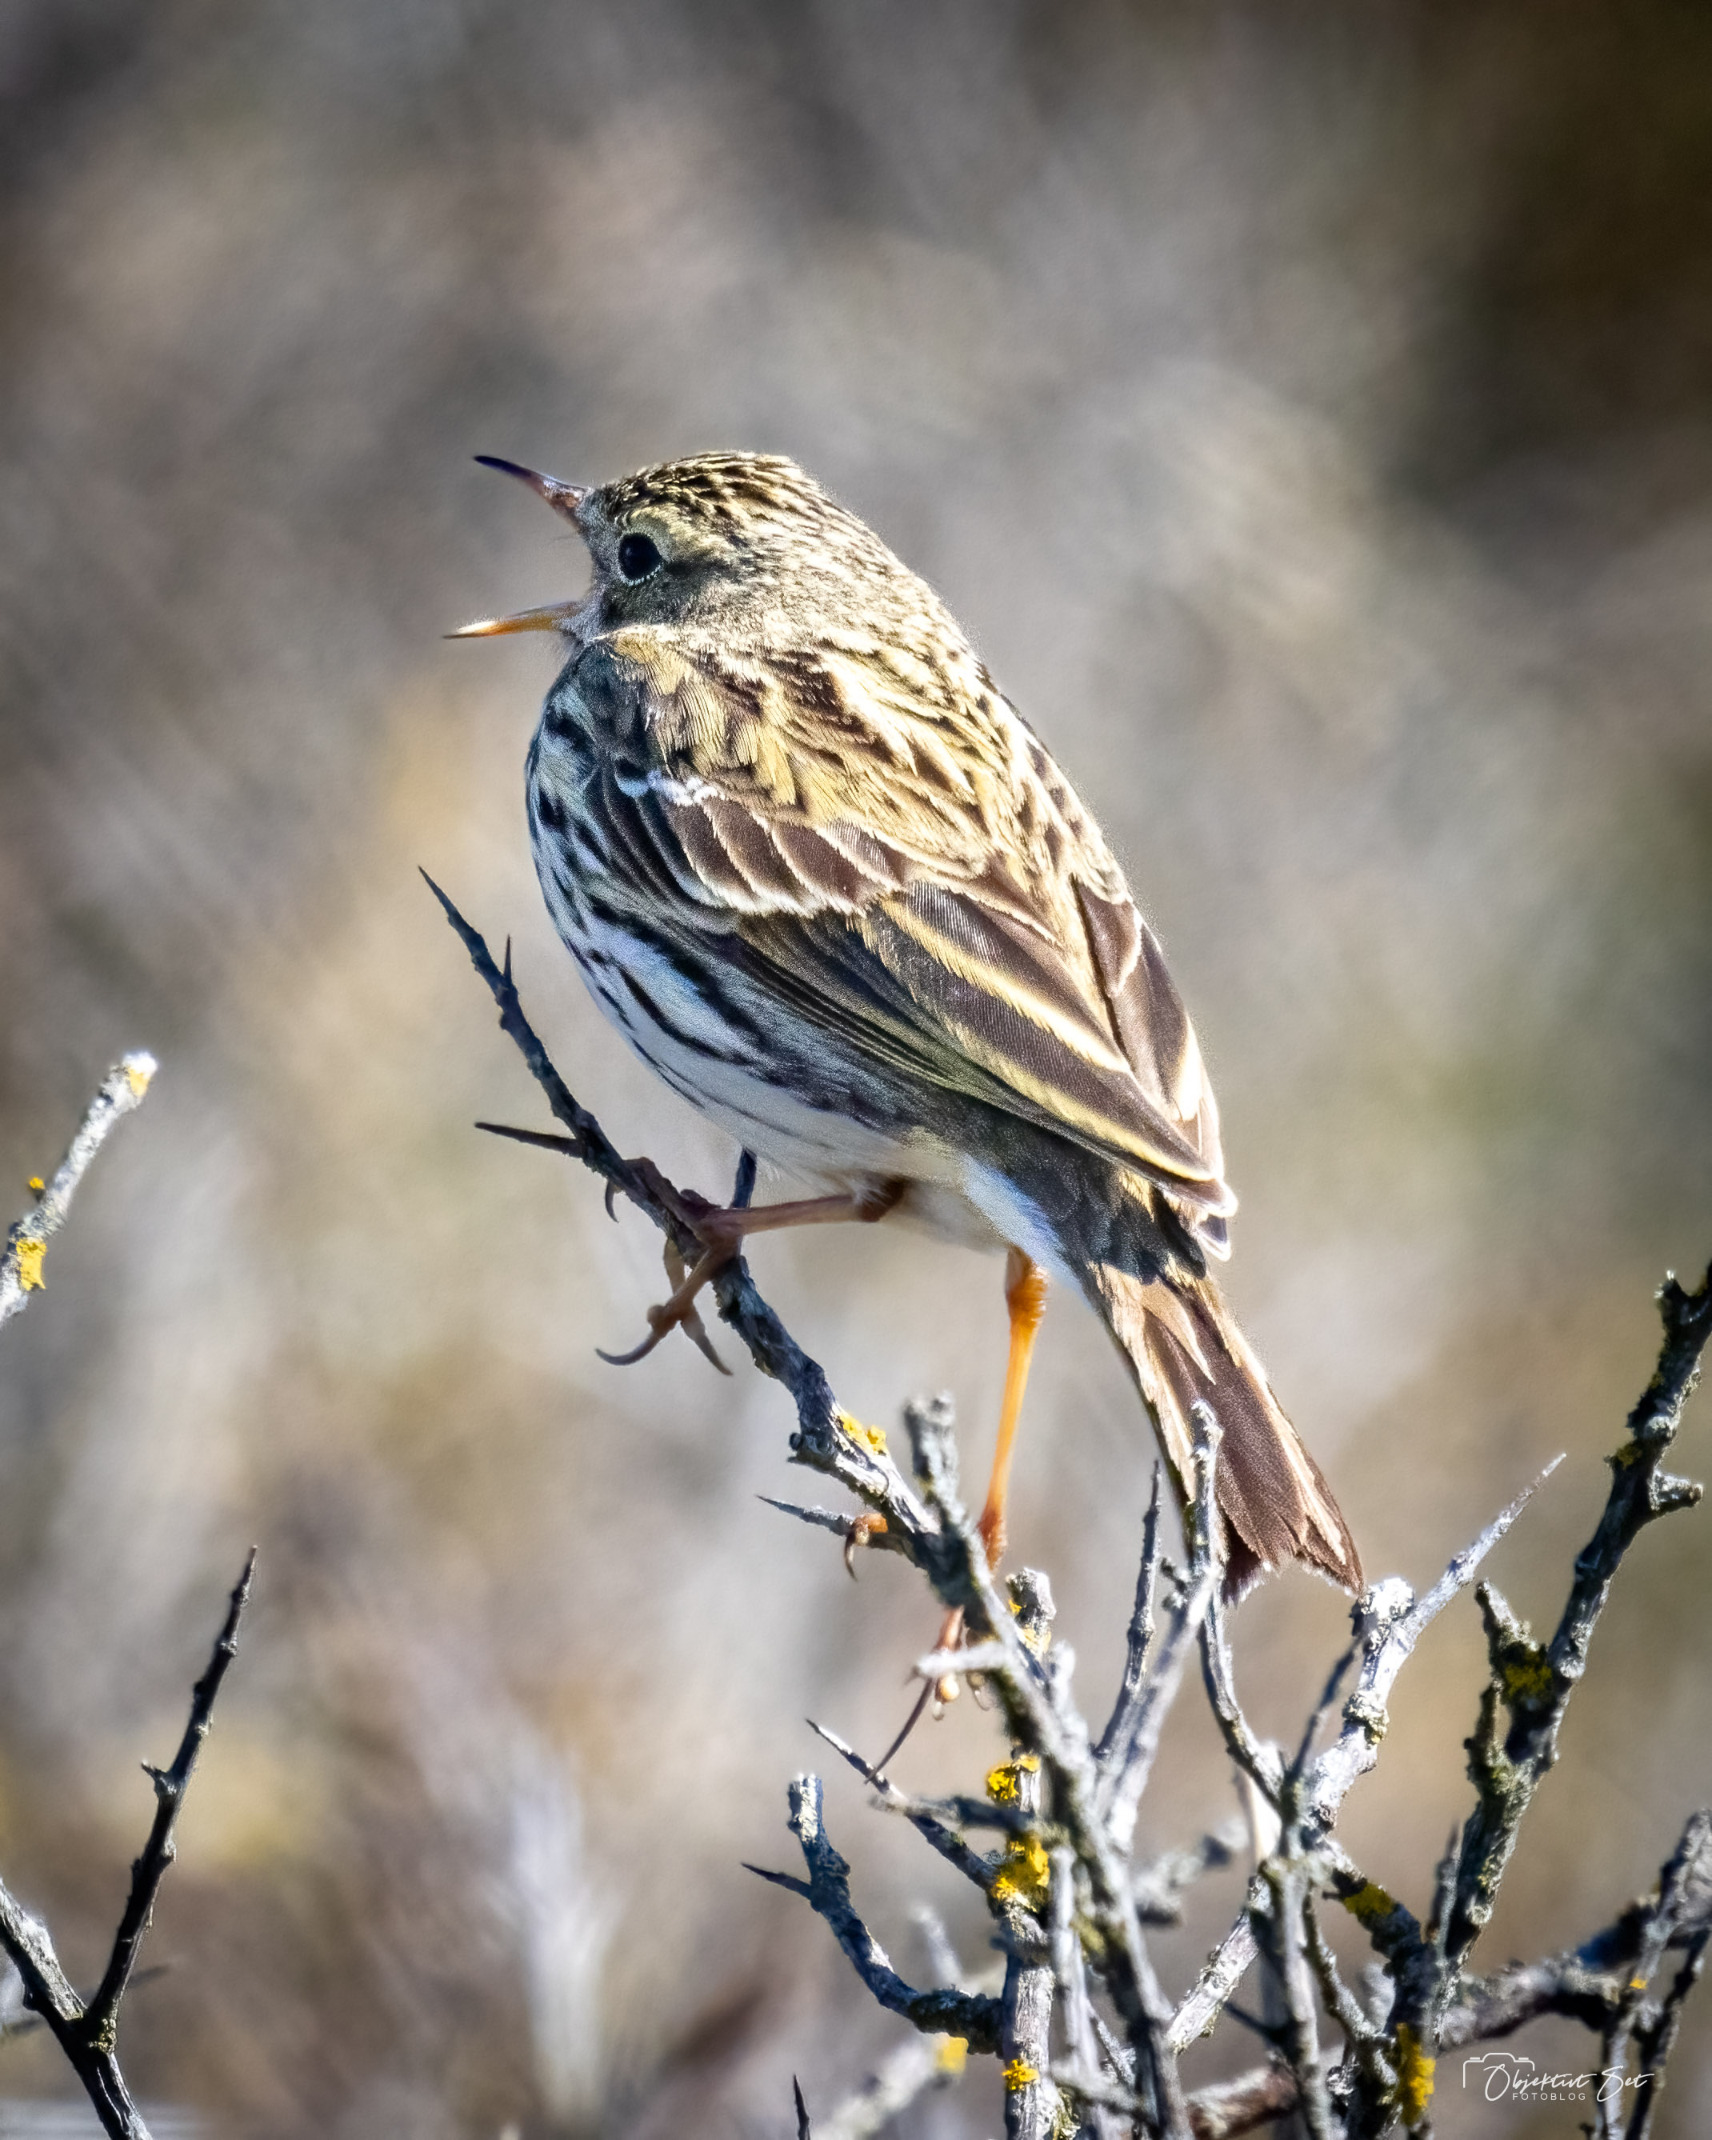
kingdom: Animalia
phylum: Chordata
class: Aves
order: Passeriformes
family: Motacillidae
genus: Anthus
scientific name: Anthus pratensis
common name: Engpiber
